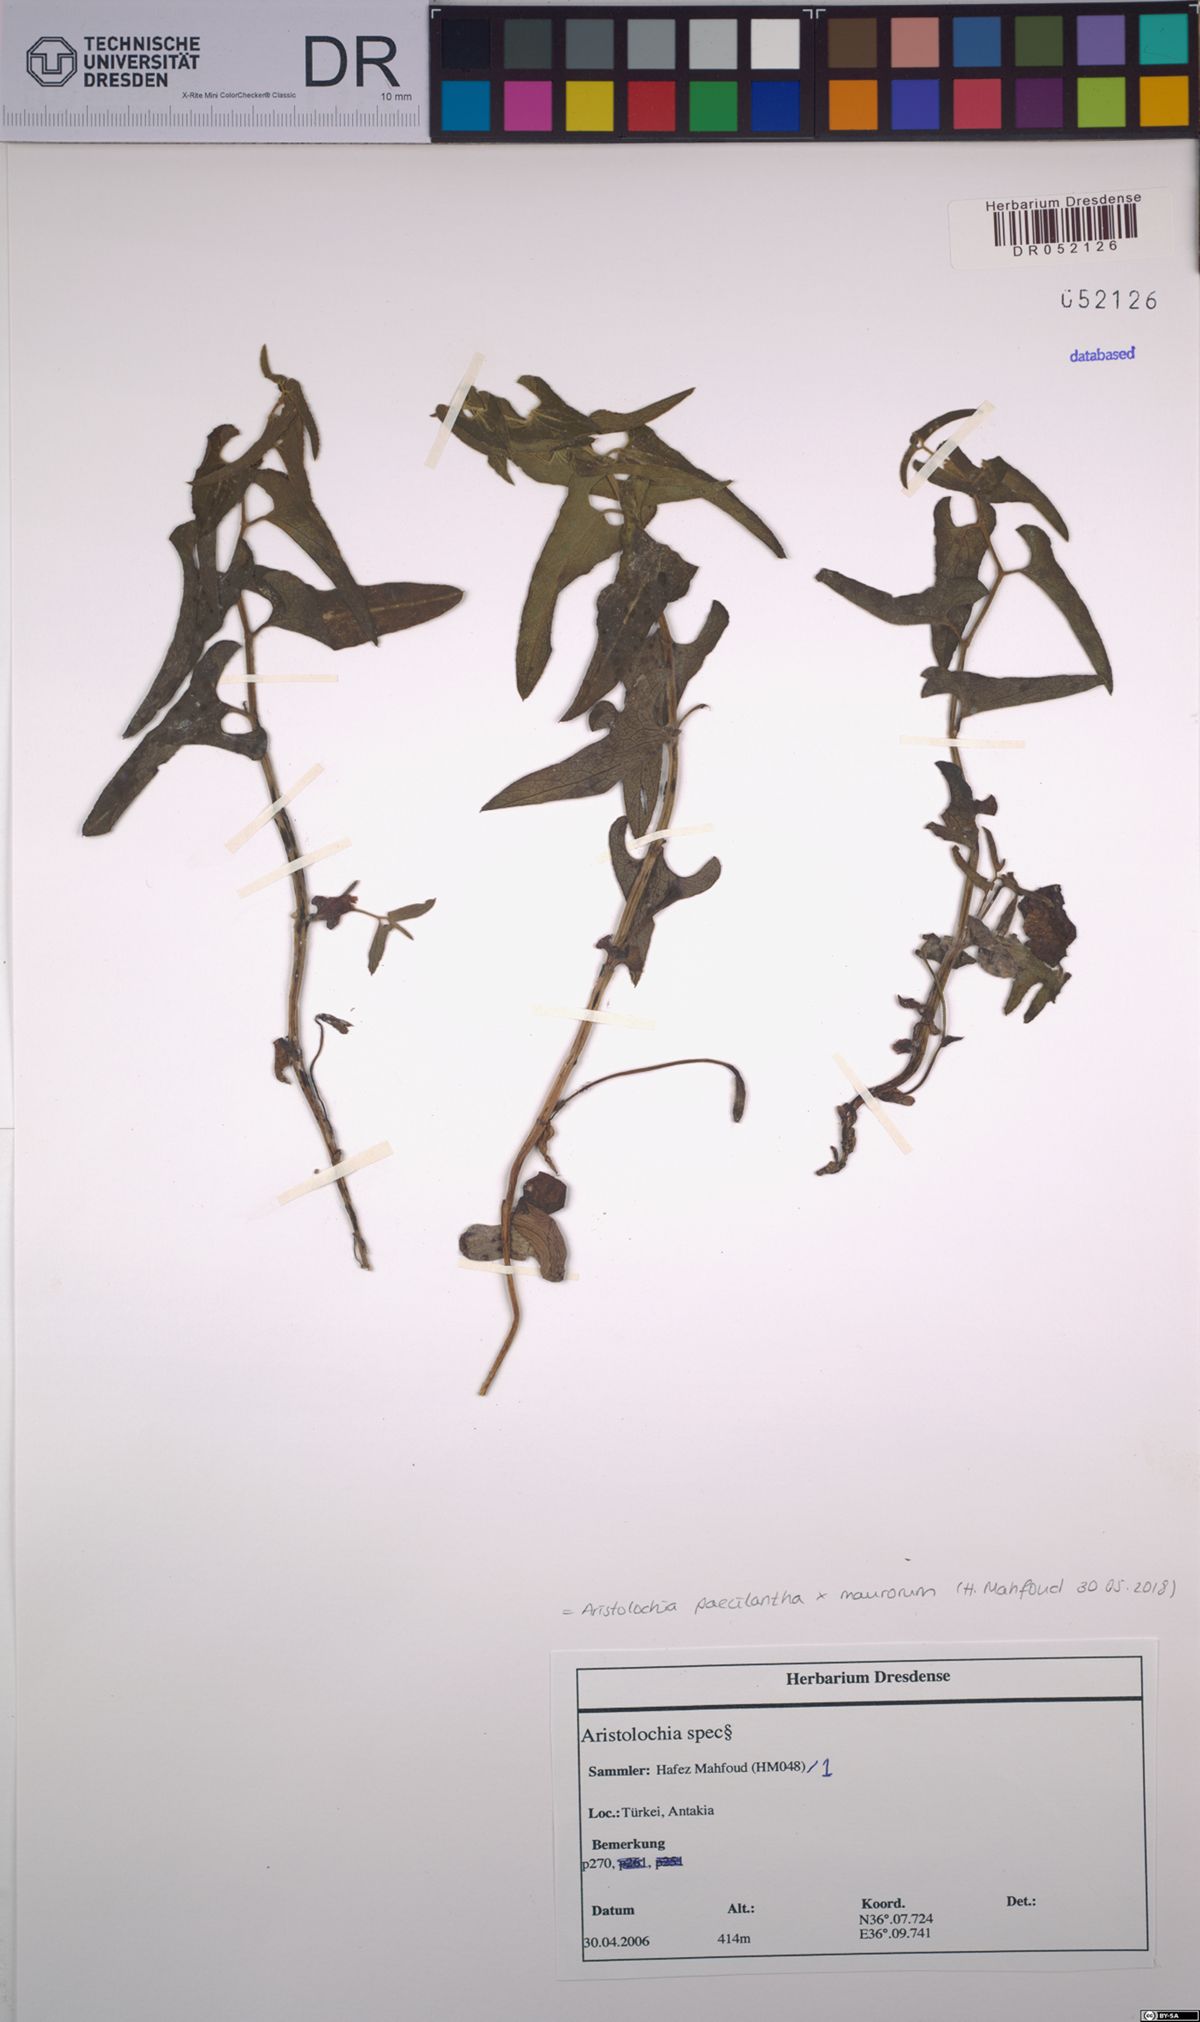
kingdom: Plantae
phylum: Tracheophyta
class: Magnoliopsida
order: Piperales
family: Aristolochiaceae
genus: Aristolochia
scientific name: Aristolochia paecilantha
